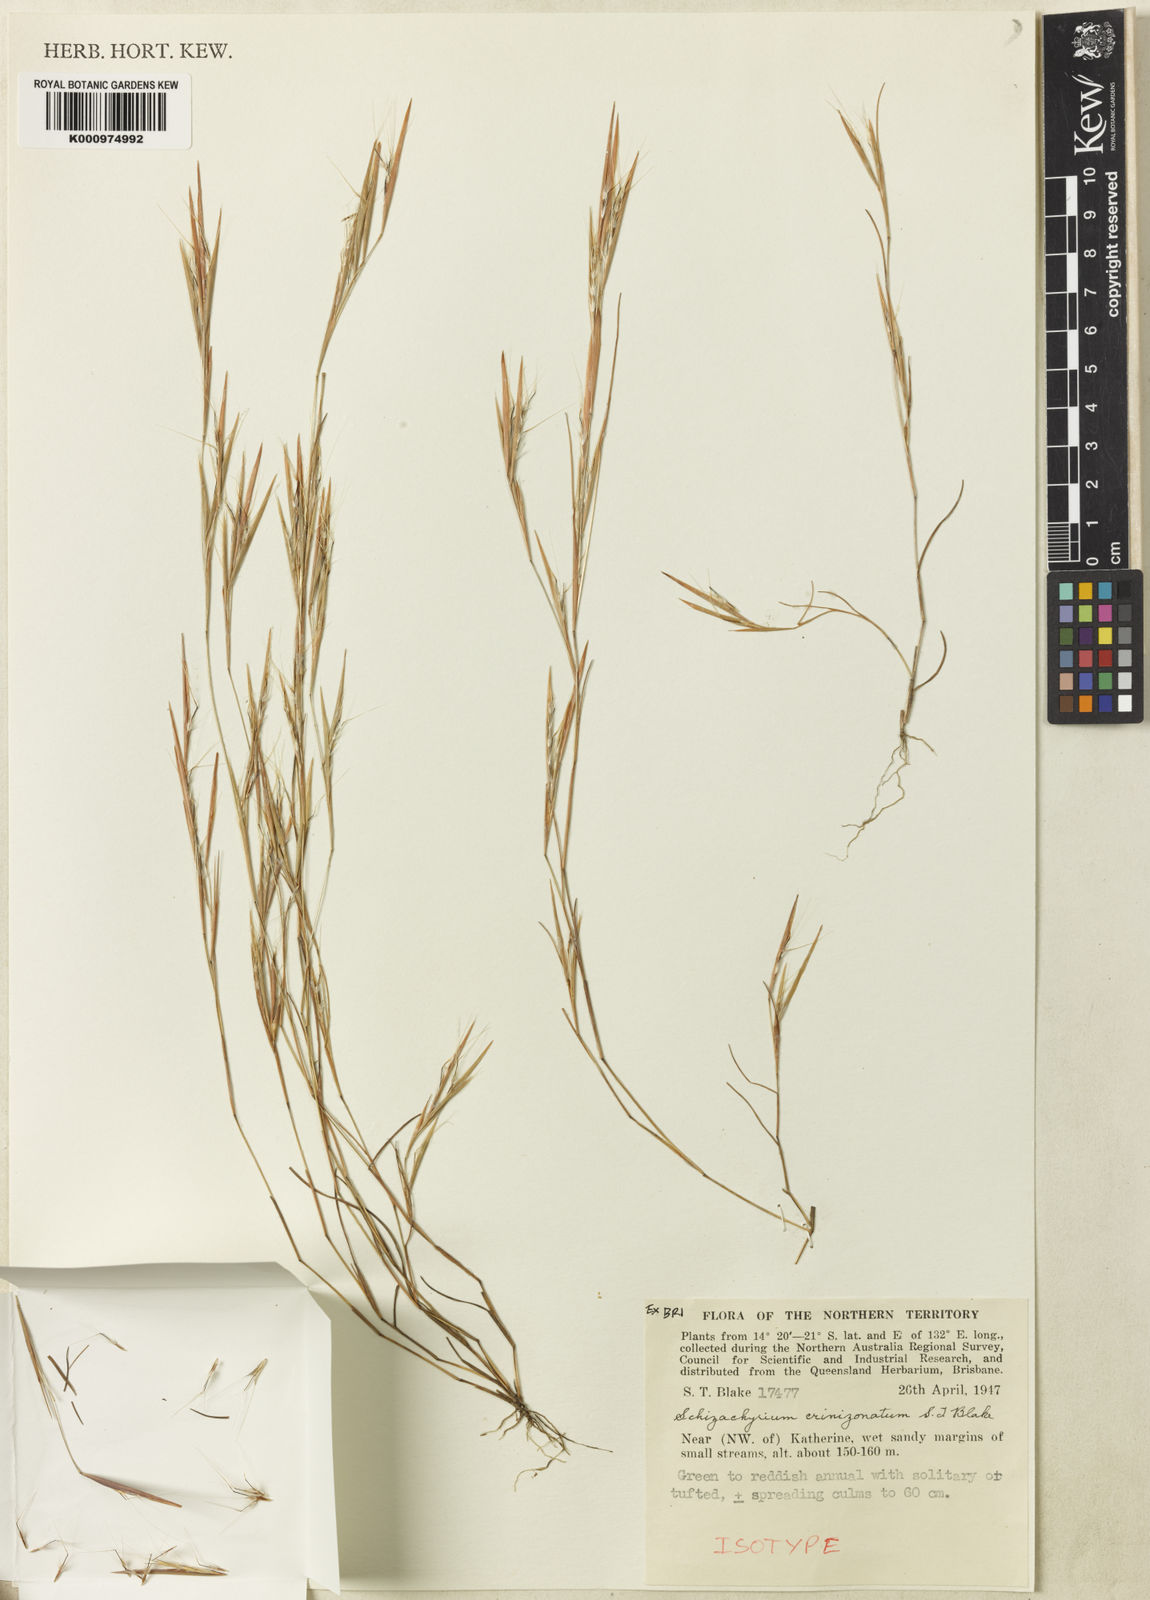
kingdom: Plantae
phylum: Tracheophyta
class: Liliopsida
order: Poales
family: Poaceae
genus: Schizachyrium
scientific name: Schizachyrium crinizonatum
